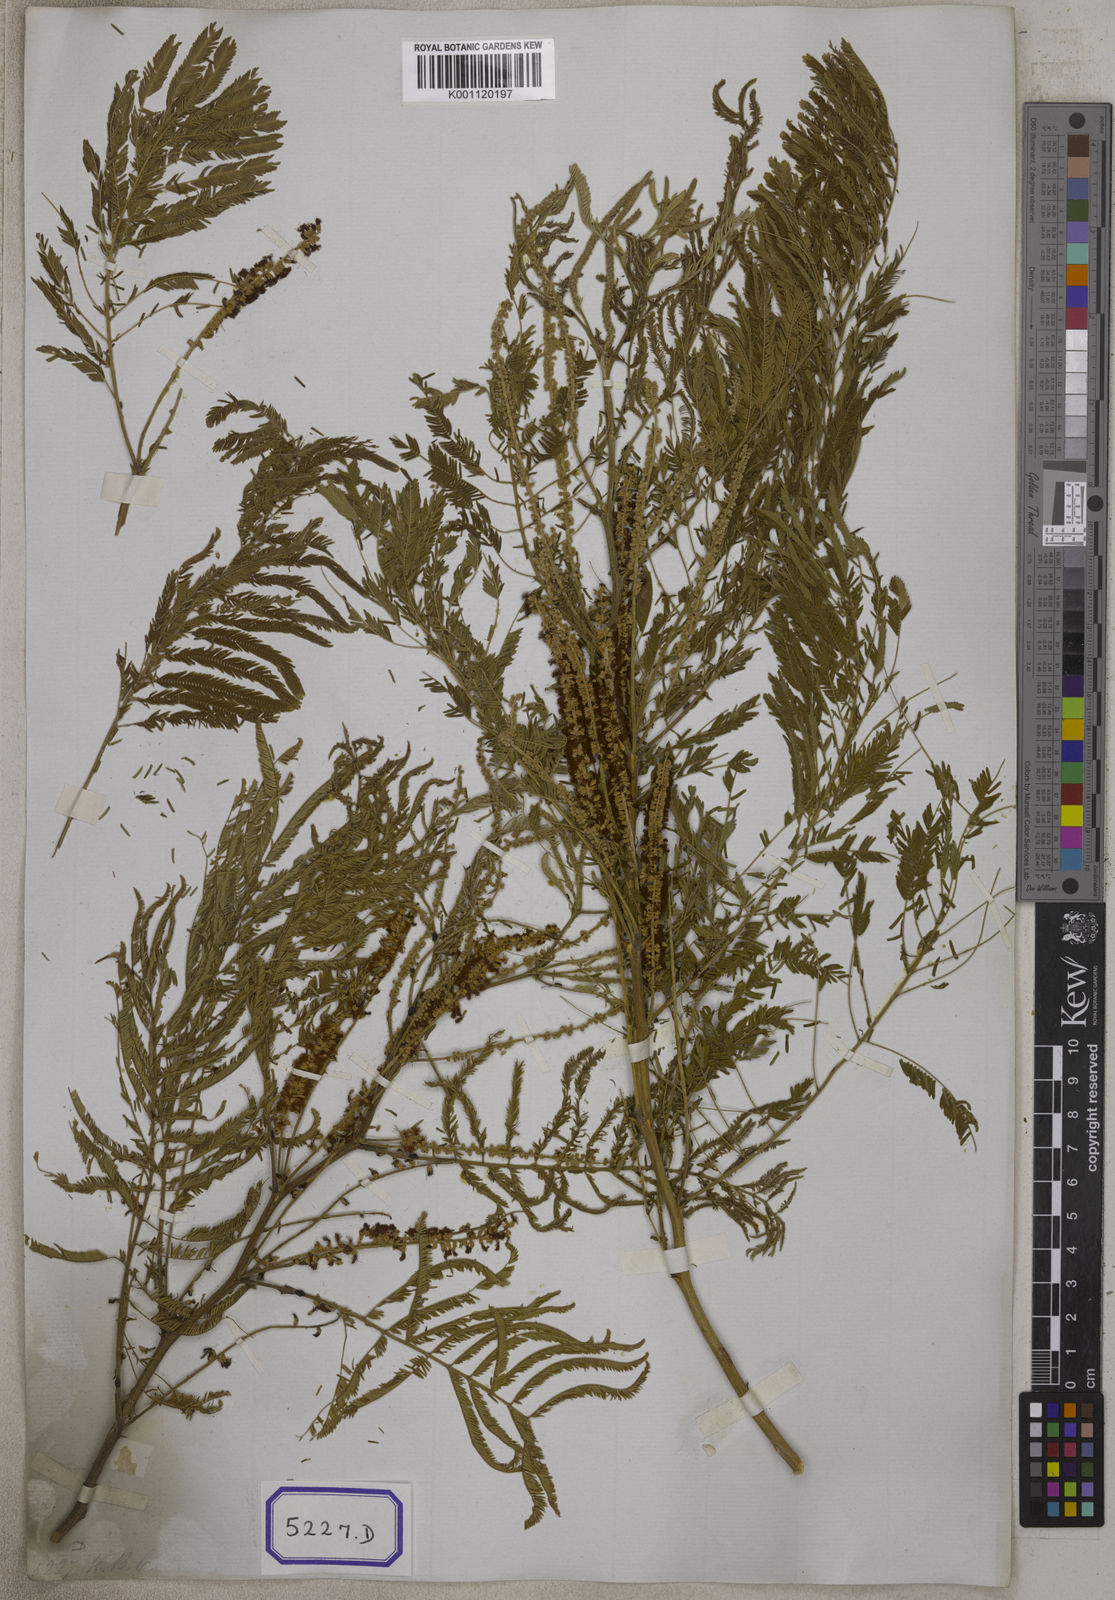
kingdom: Plantae
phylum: Tracheophyta
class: Magnoliopsida
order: Fabales
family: Fabaceae
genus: Senegalia
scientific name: Senegalia chundra
